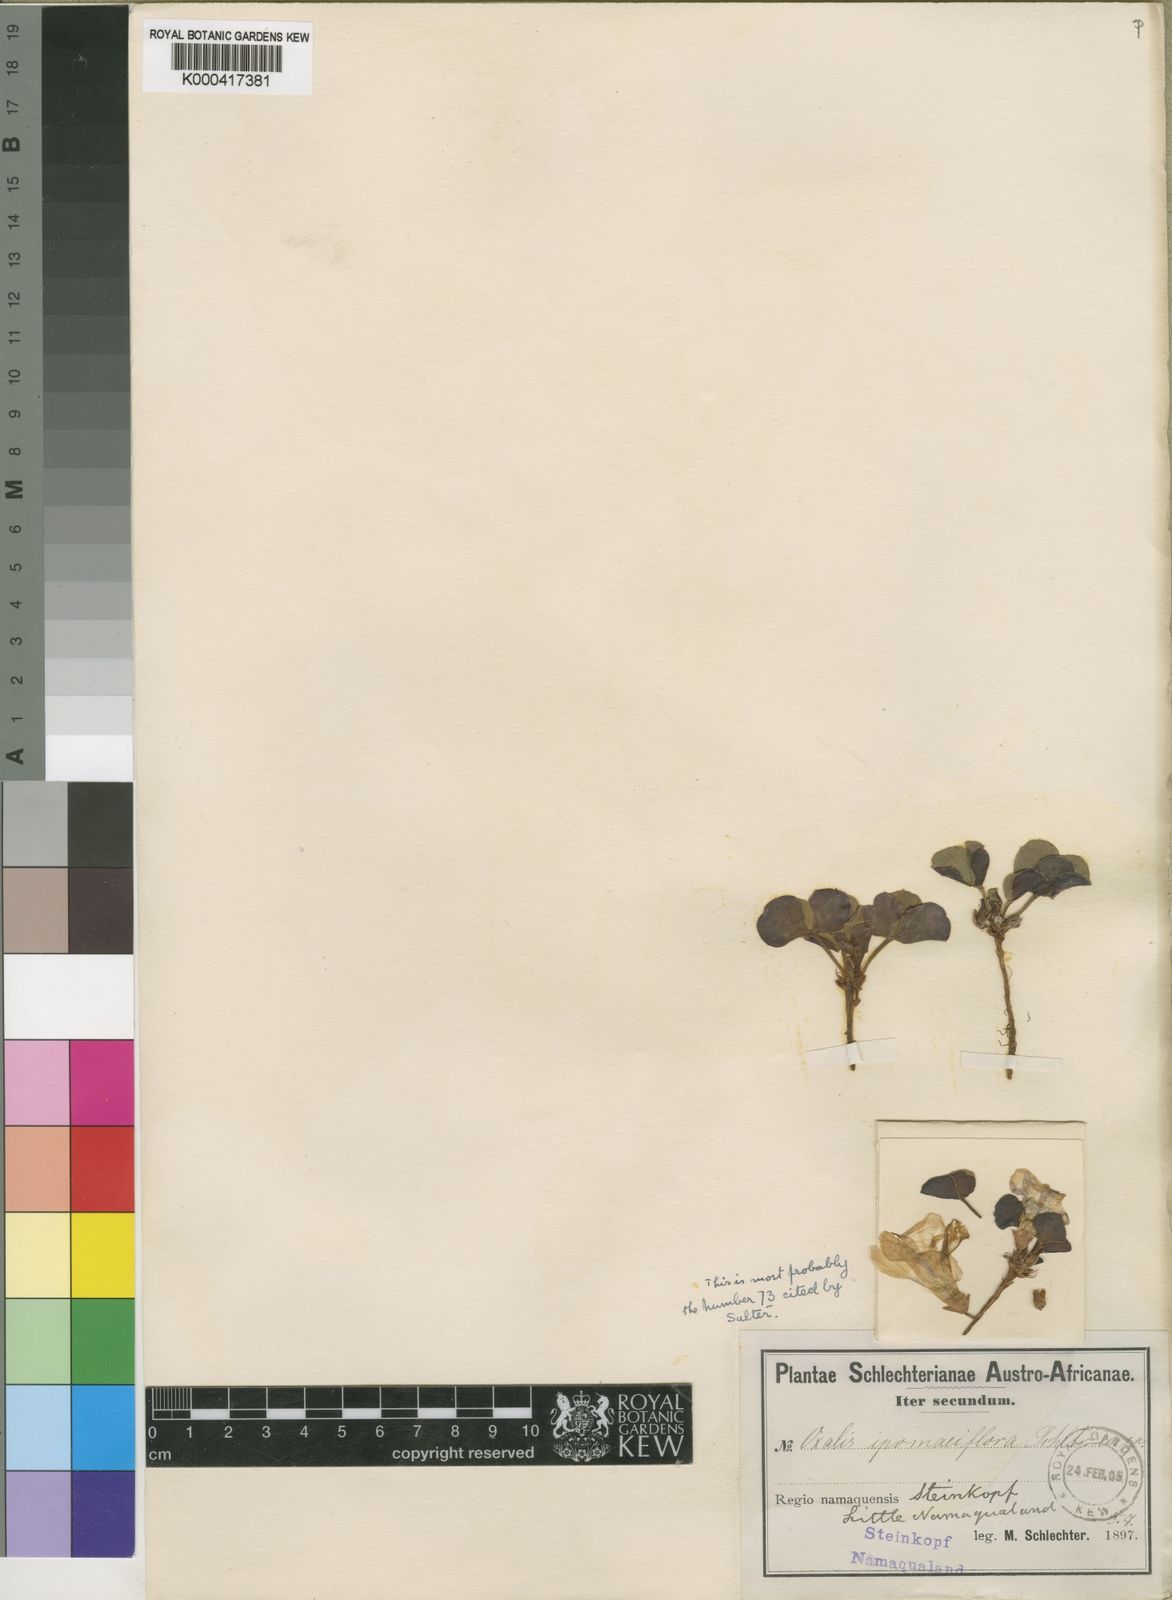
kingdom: Plantae
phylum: Tracheophyta
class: Magnoliopsida
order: Oxalidales
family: Oxalidaceae
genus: Oxalis
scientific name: Oxalis adenodes
